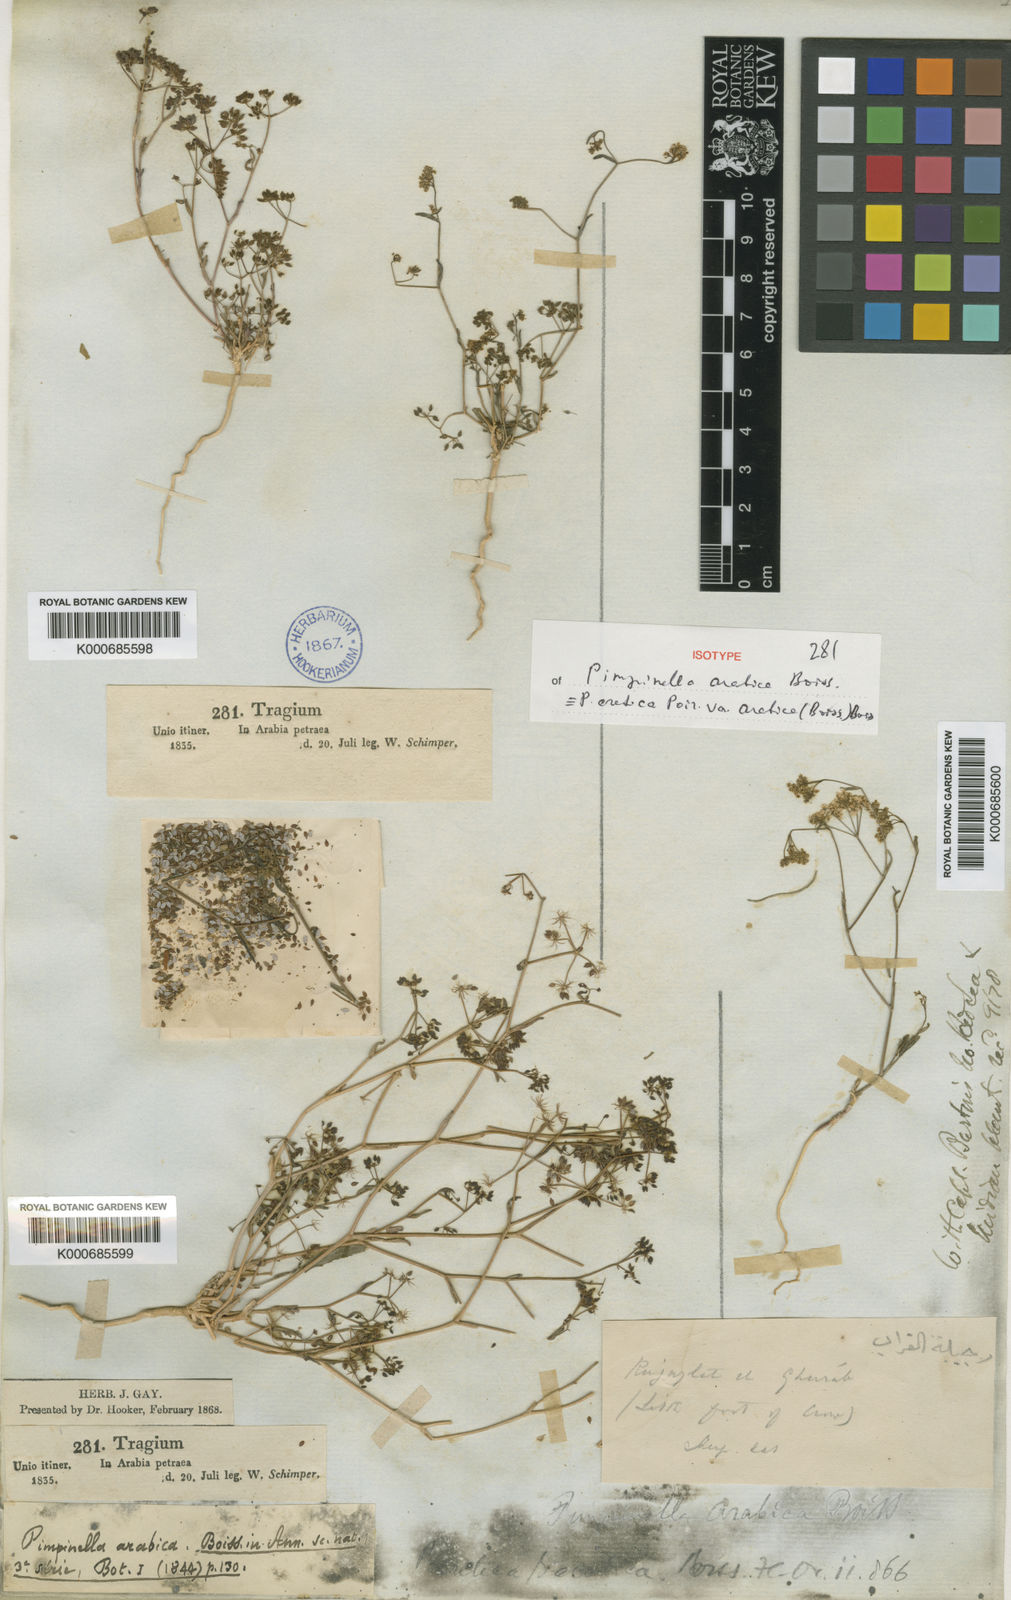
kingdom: Plantae
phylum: Tracheophyta
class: Magnoliopsida
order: Apiales
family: Apiaceae
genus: Pimpinella
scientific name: Pimpinella cretica
